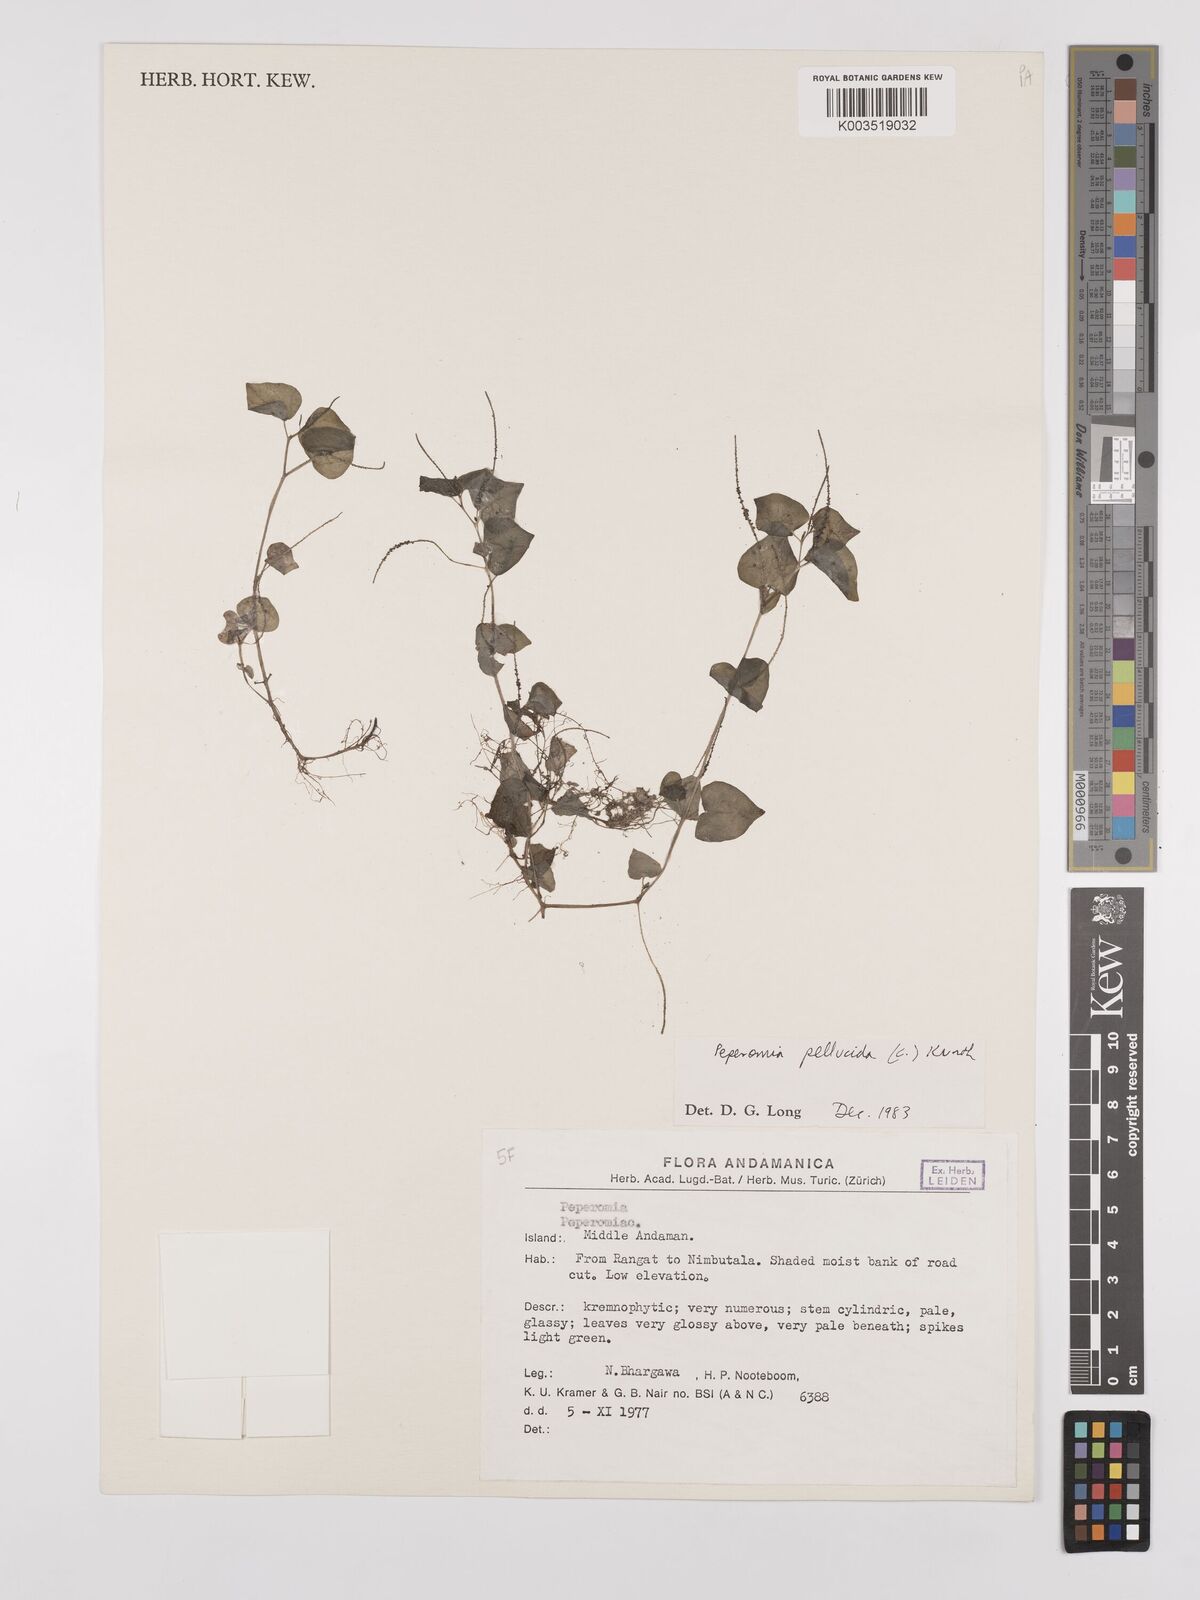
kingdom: Plantae
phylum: Tracheophyta
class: Magnoliopsida
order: Piperales
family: Piperaceae
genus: Peperomia
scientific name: Peperomia pellucida
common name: Man to man
